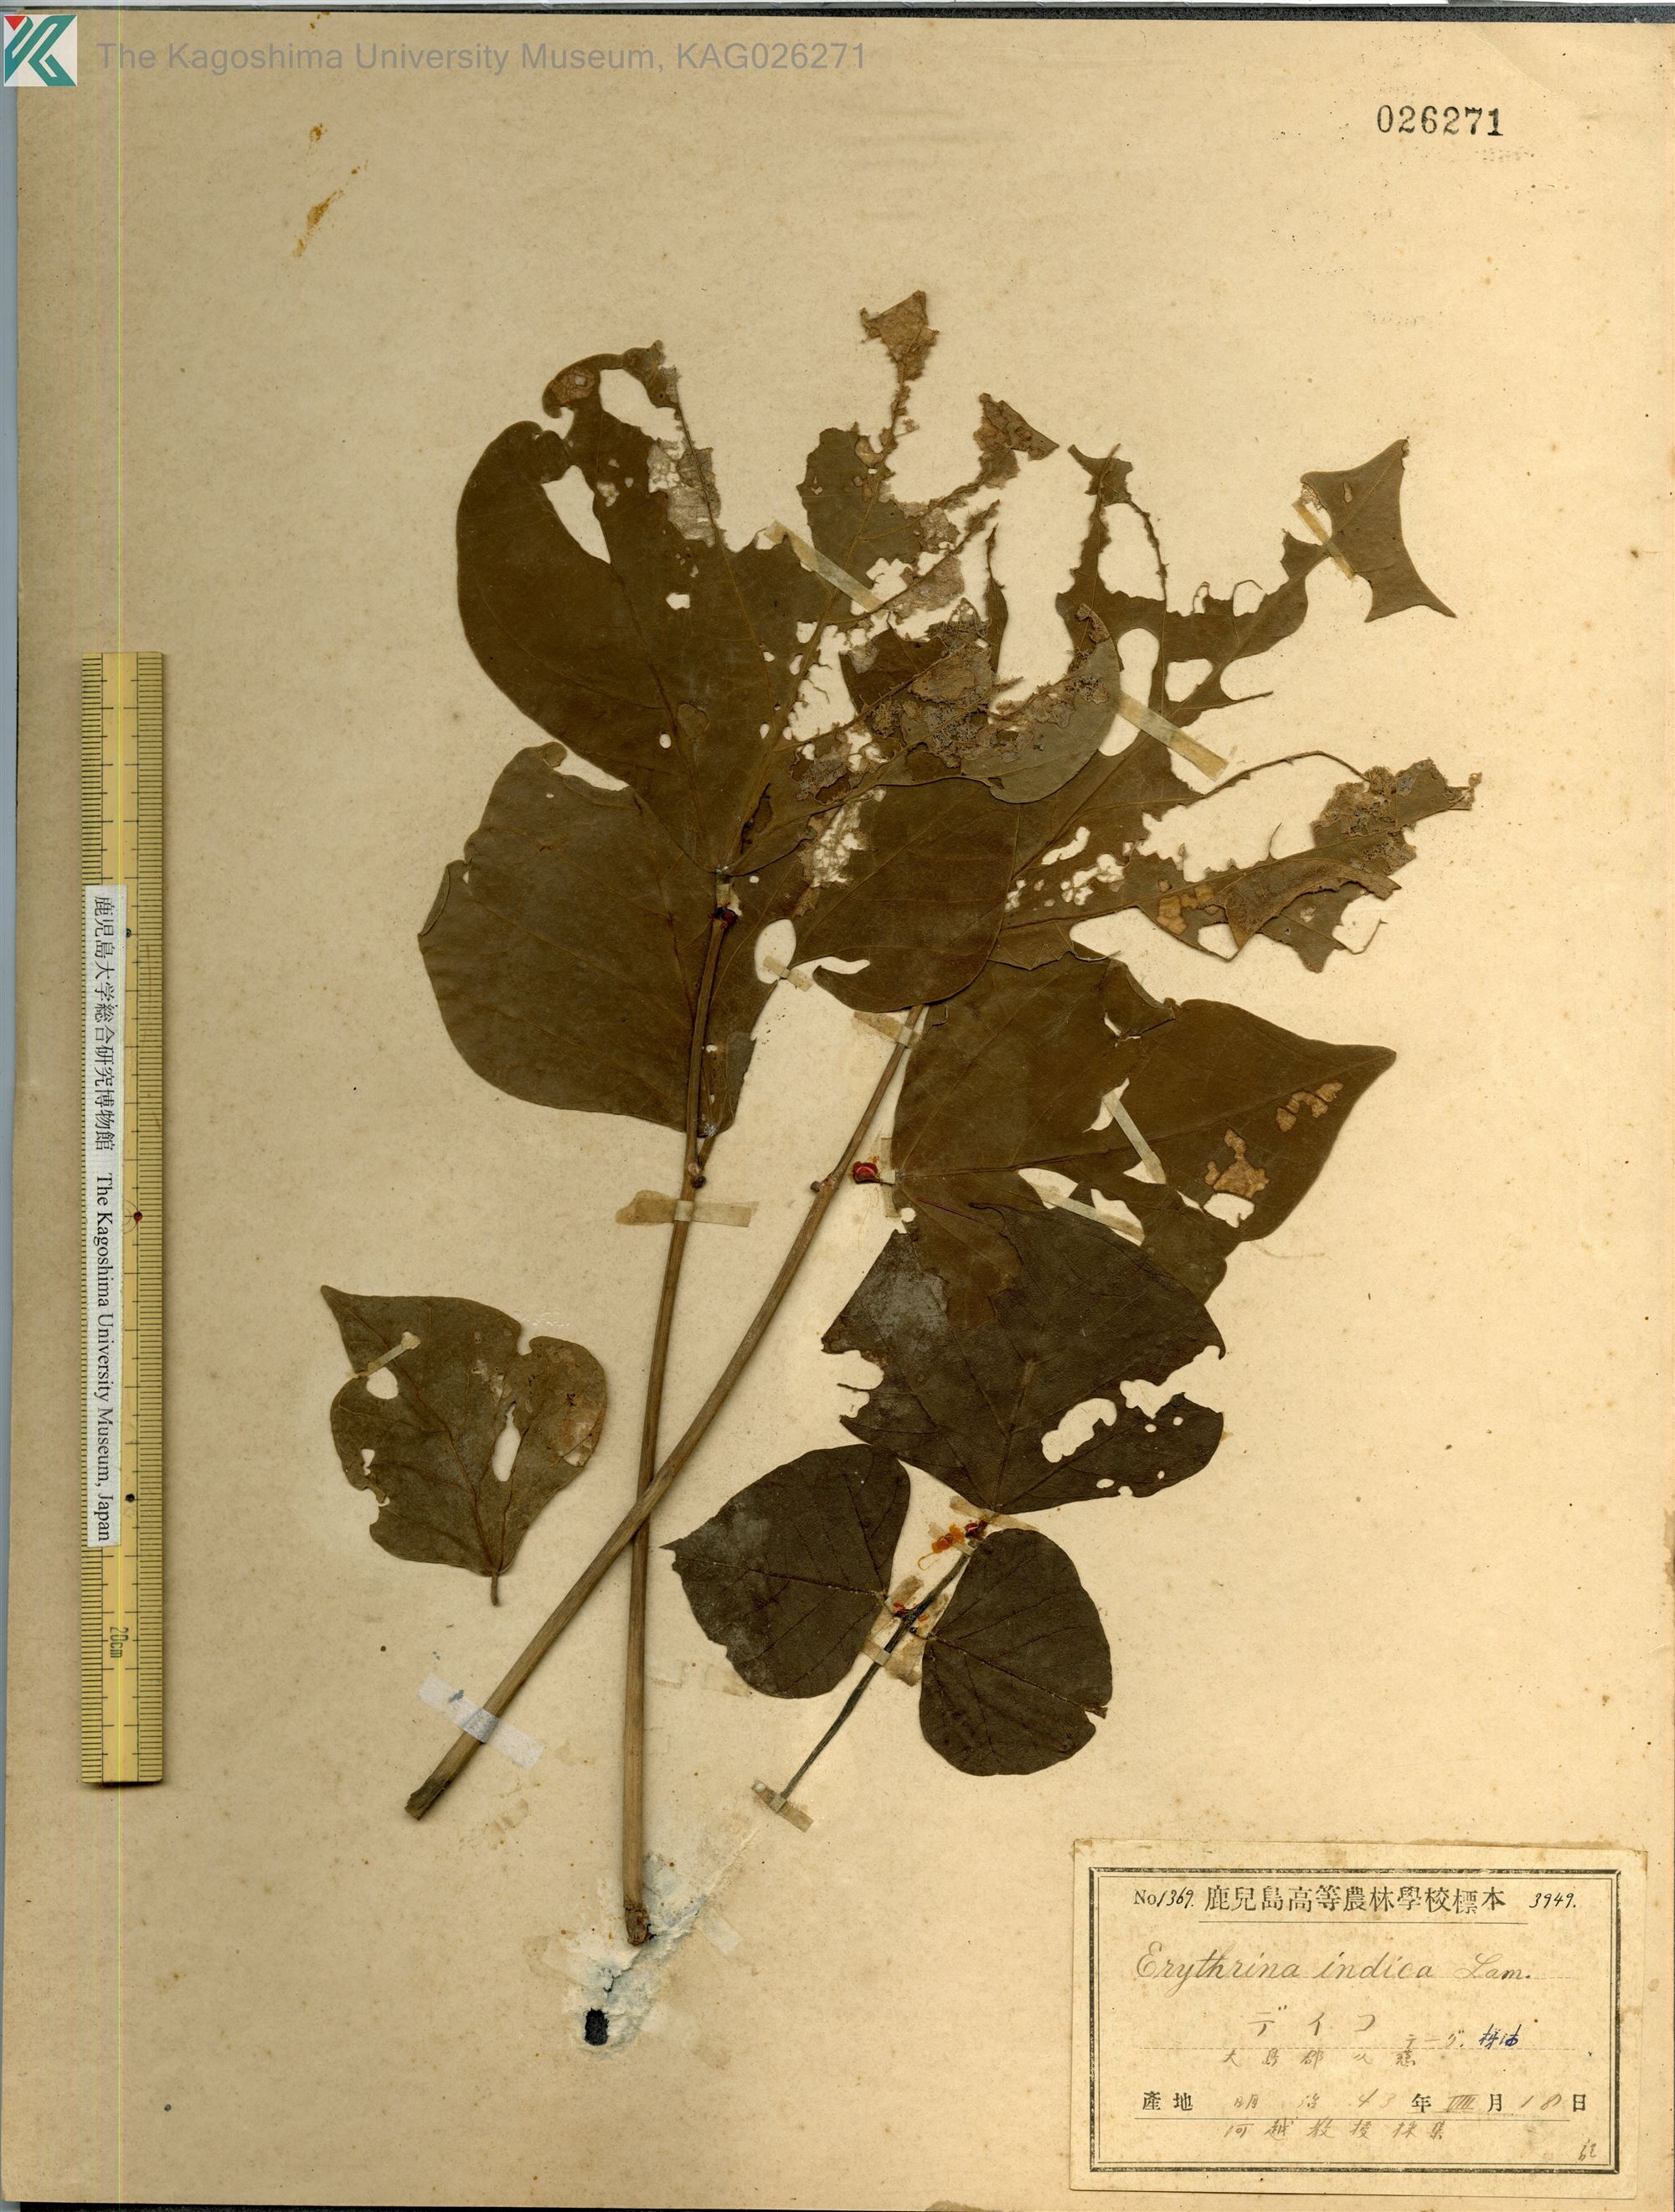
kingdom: Plantae
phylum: Tracheophyta
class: Magnoliopsida
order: Fabales
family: Fabaceae
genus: Erythrina
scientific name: Erythrina variegata
